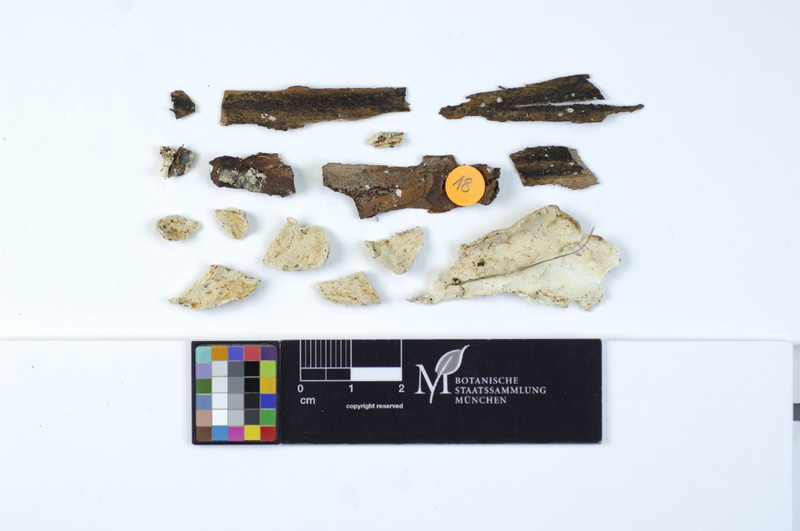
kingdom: Plantae
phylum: Tracheophyta
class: Pinopsida
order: Pinales
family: Pinaceae
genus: Pinus
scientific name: Pinus
